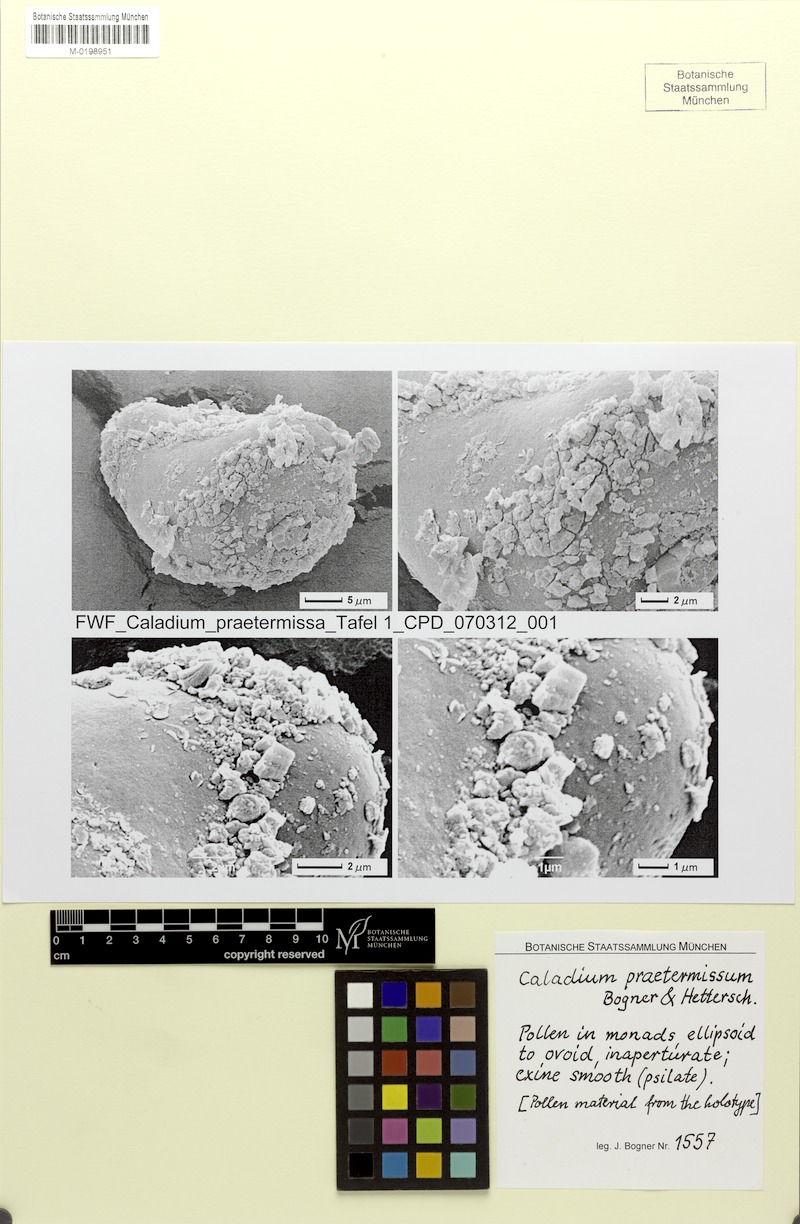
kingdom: Plantae
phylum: Tracheophyta
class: Liliopsida
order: Alismatales
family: Araceae
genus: Caladium
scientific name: Caladium praetermissum
